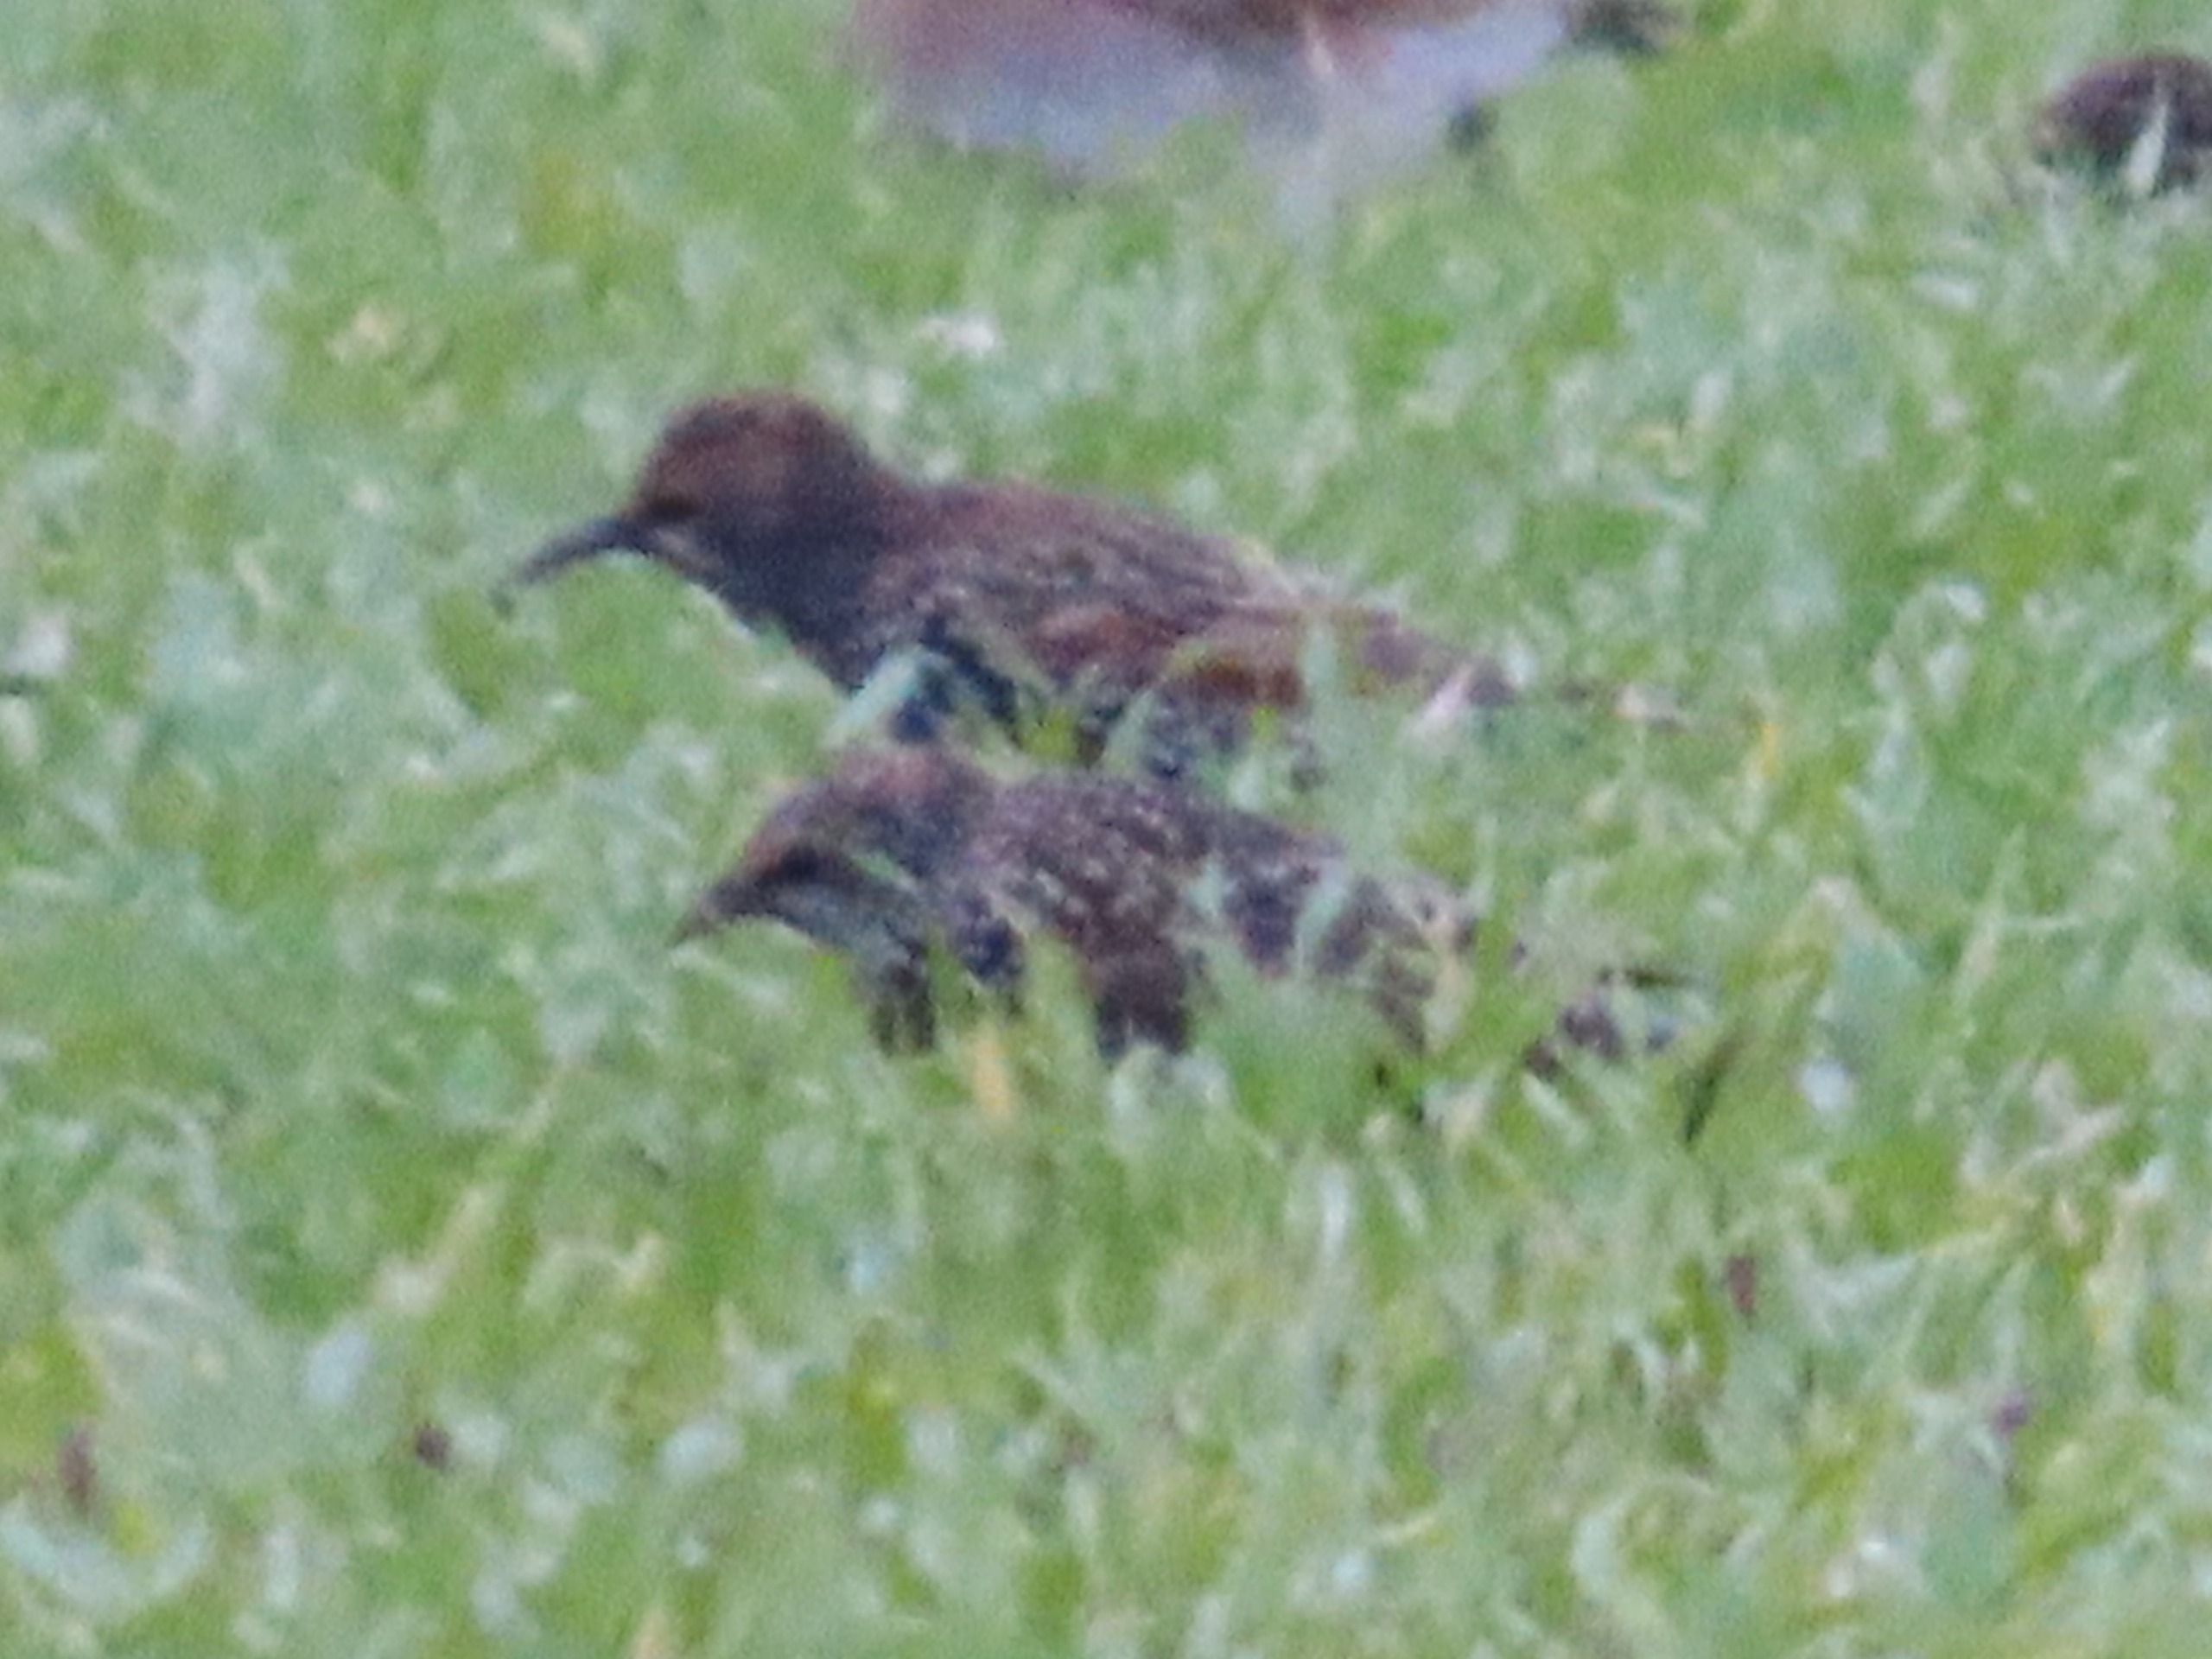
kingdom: Animalia
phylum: Chordata
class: Aves
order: Passeriformes
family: Sturnidae
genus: Sturnus
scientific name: Sturnus vulgaris
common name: Stær
